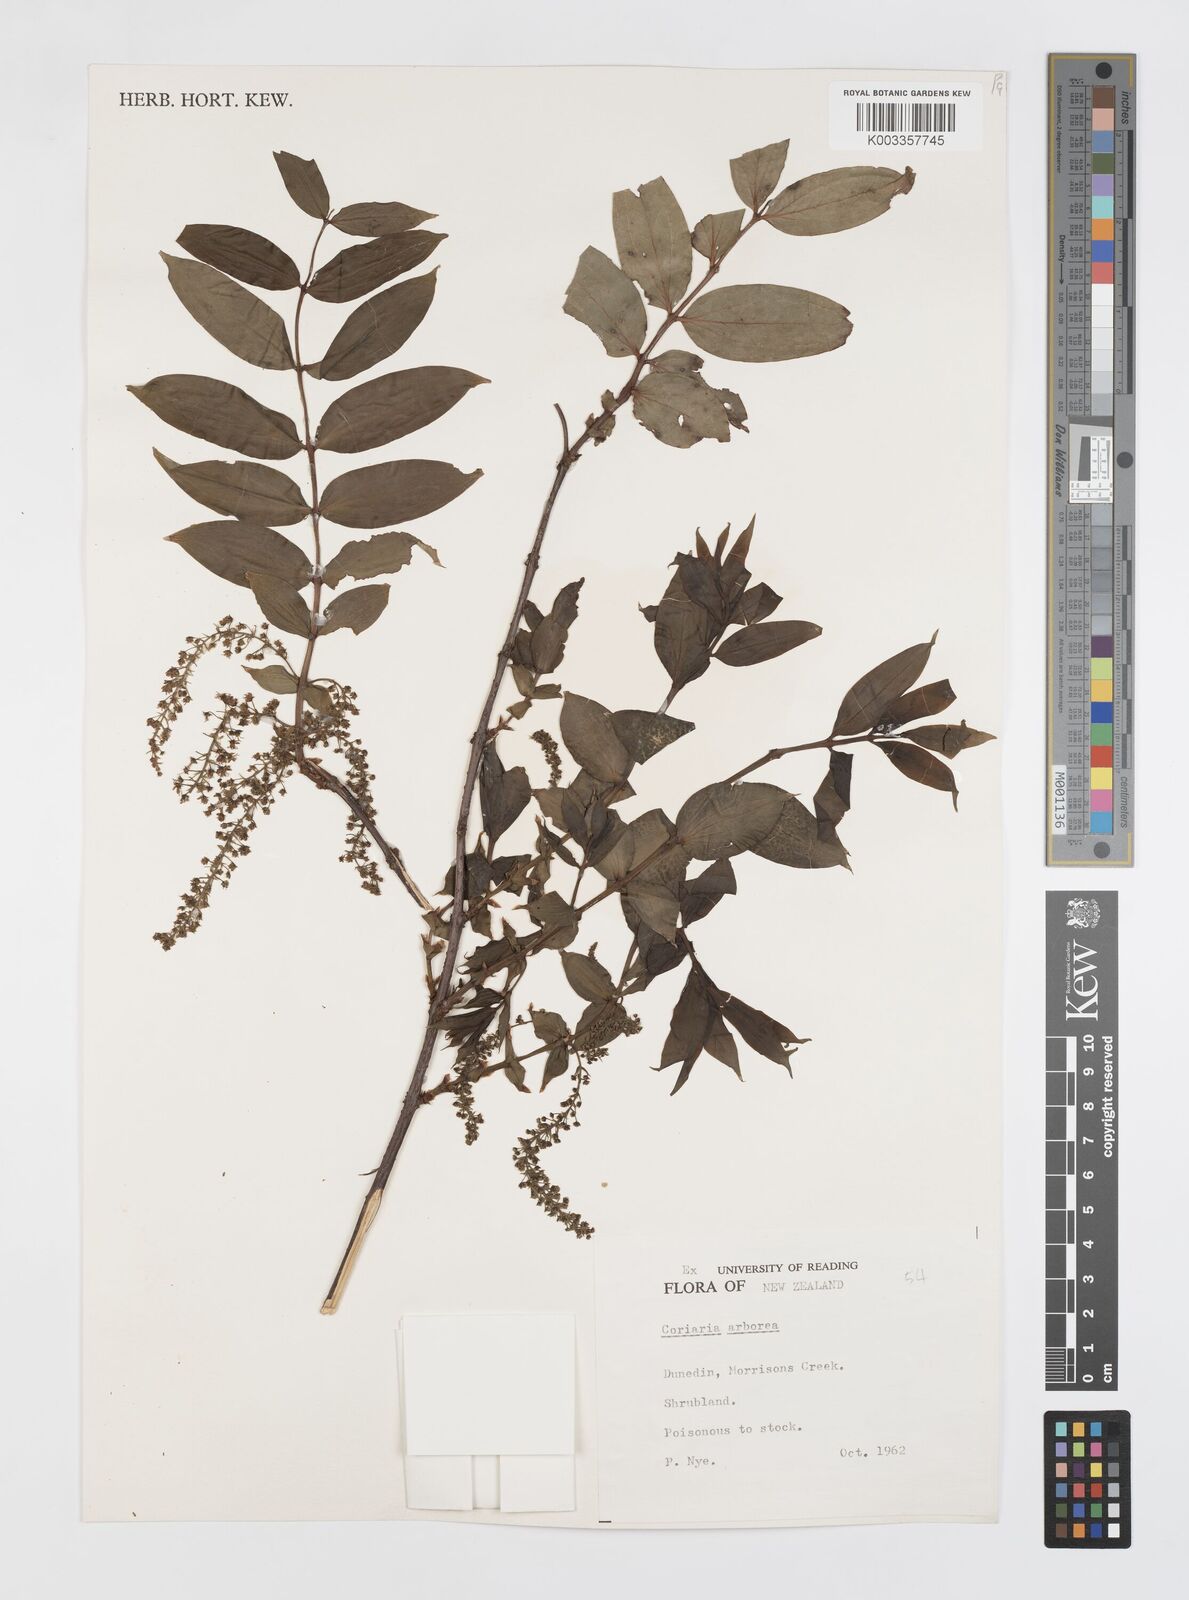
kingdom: Plantae
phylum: Tracheophyta
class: Magnoliopsida
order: Cucurbitales
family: Coriariaceae
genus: Coriaria
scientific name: Coriaria arborea
